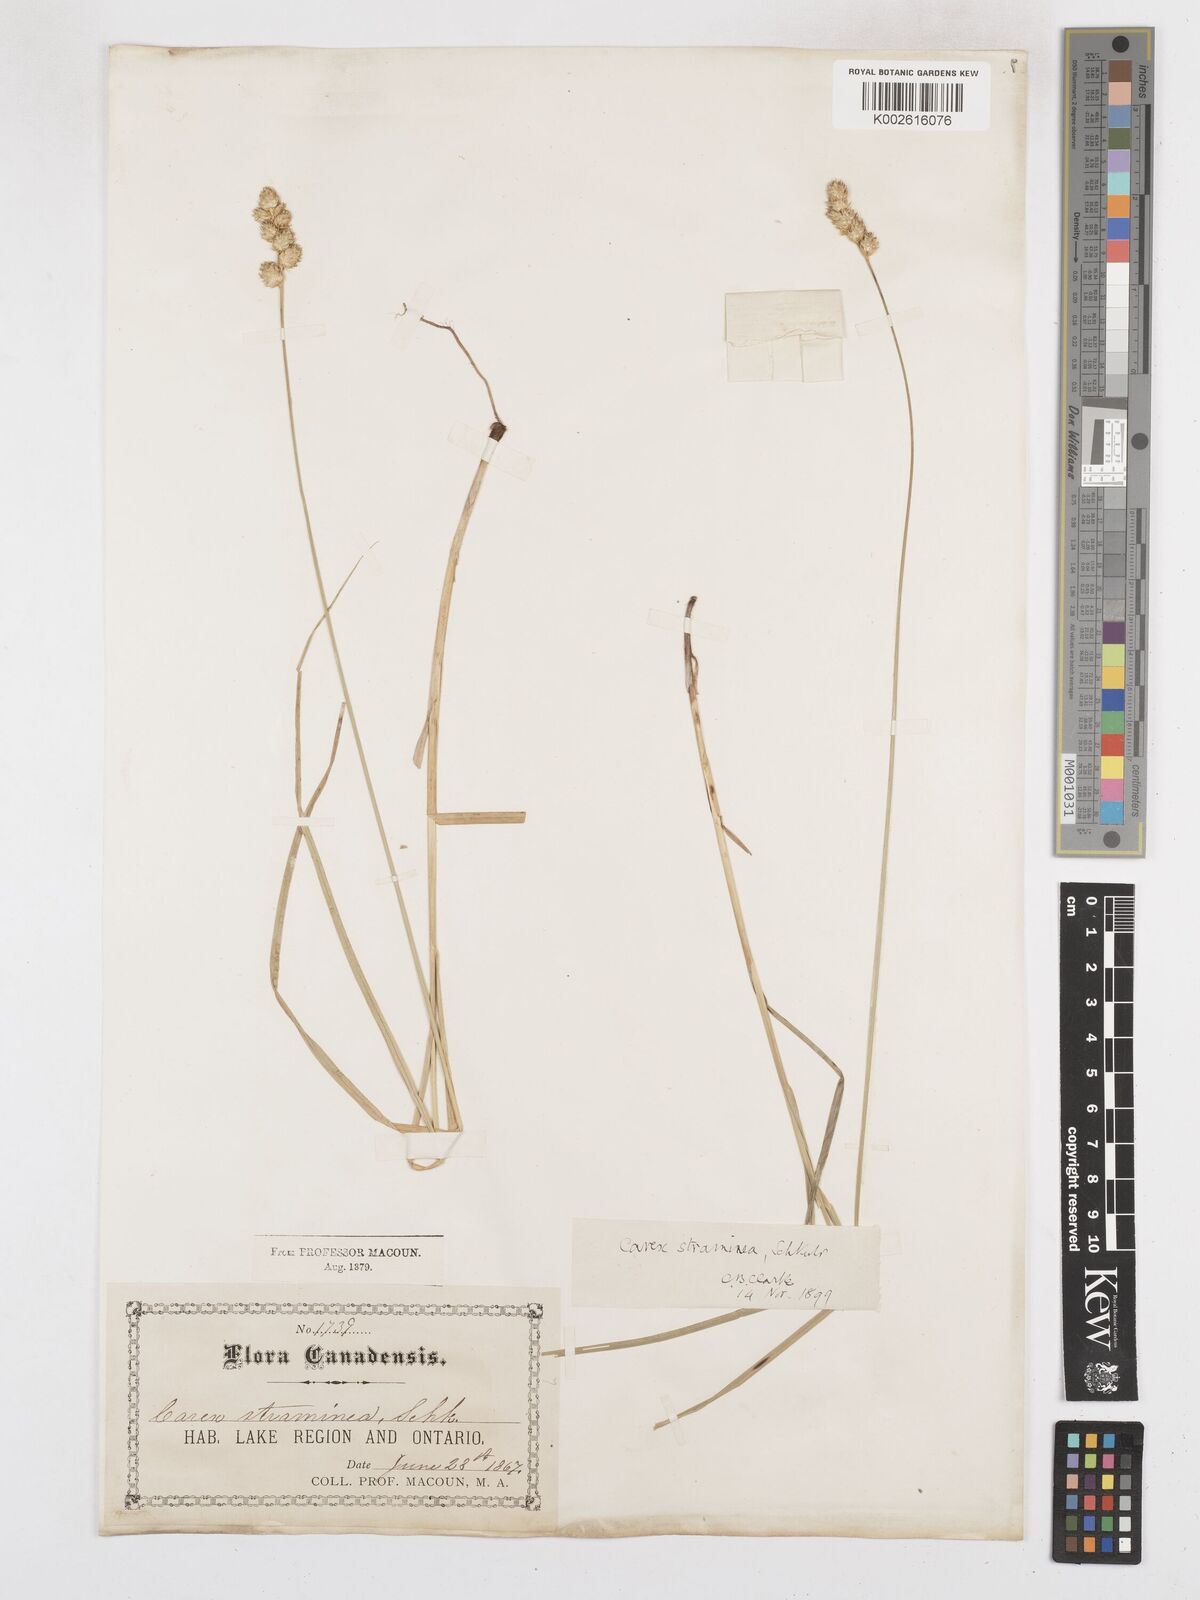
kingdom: Plantae
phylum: Tracheophyta
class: Liliopsida
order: Poales
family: Cyperaceae
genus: Carex
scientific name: Carex brevior
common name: Brevior sedge
